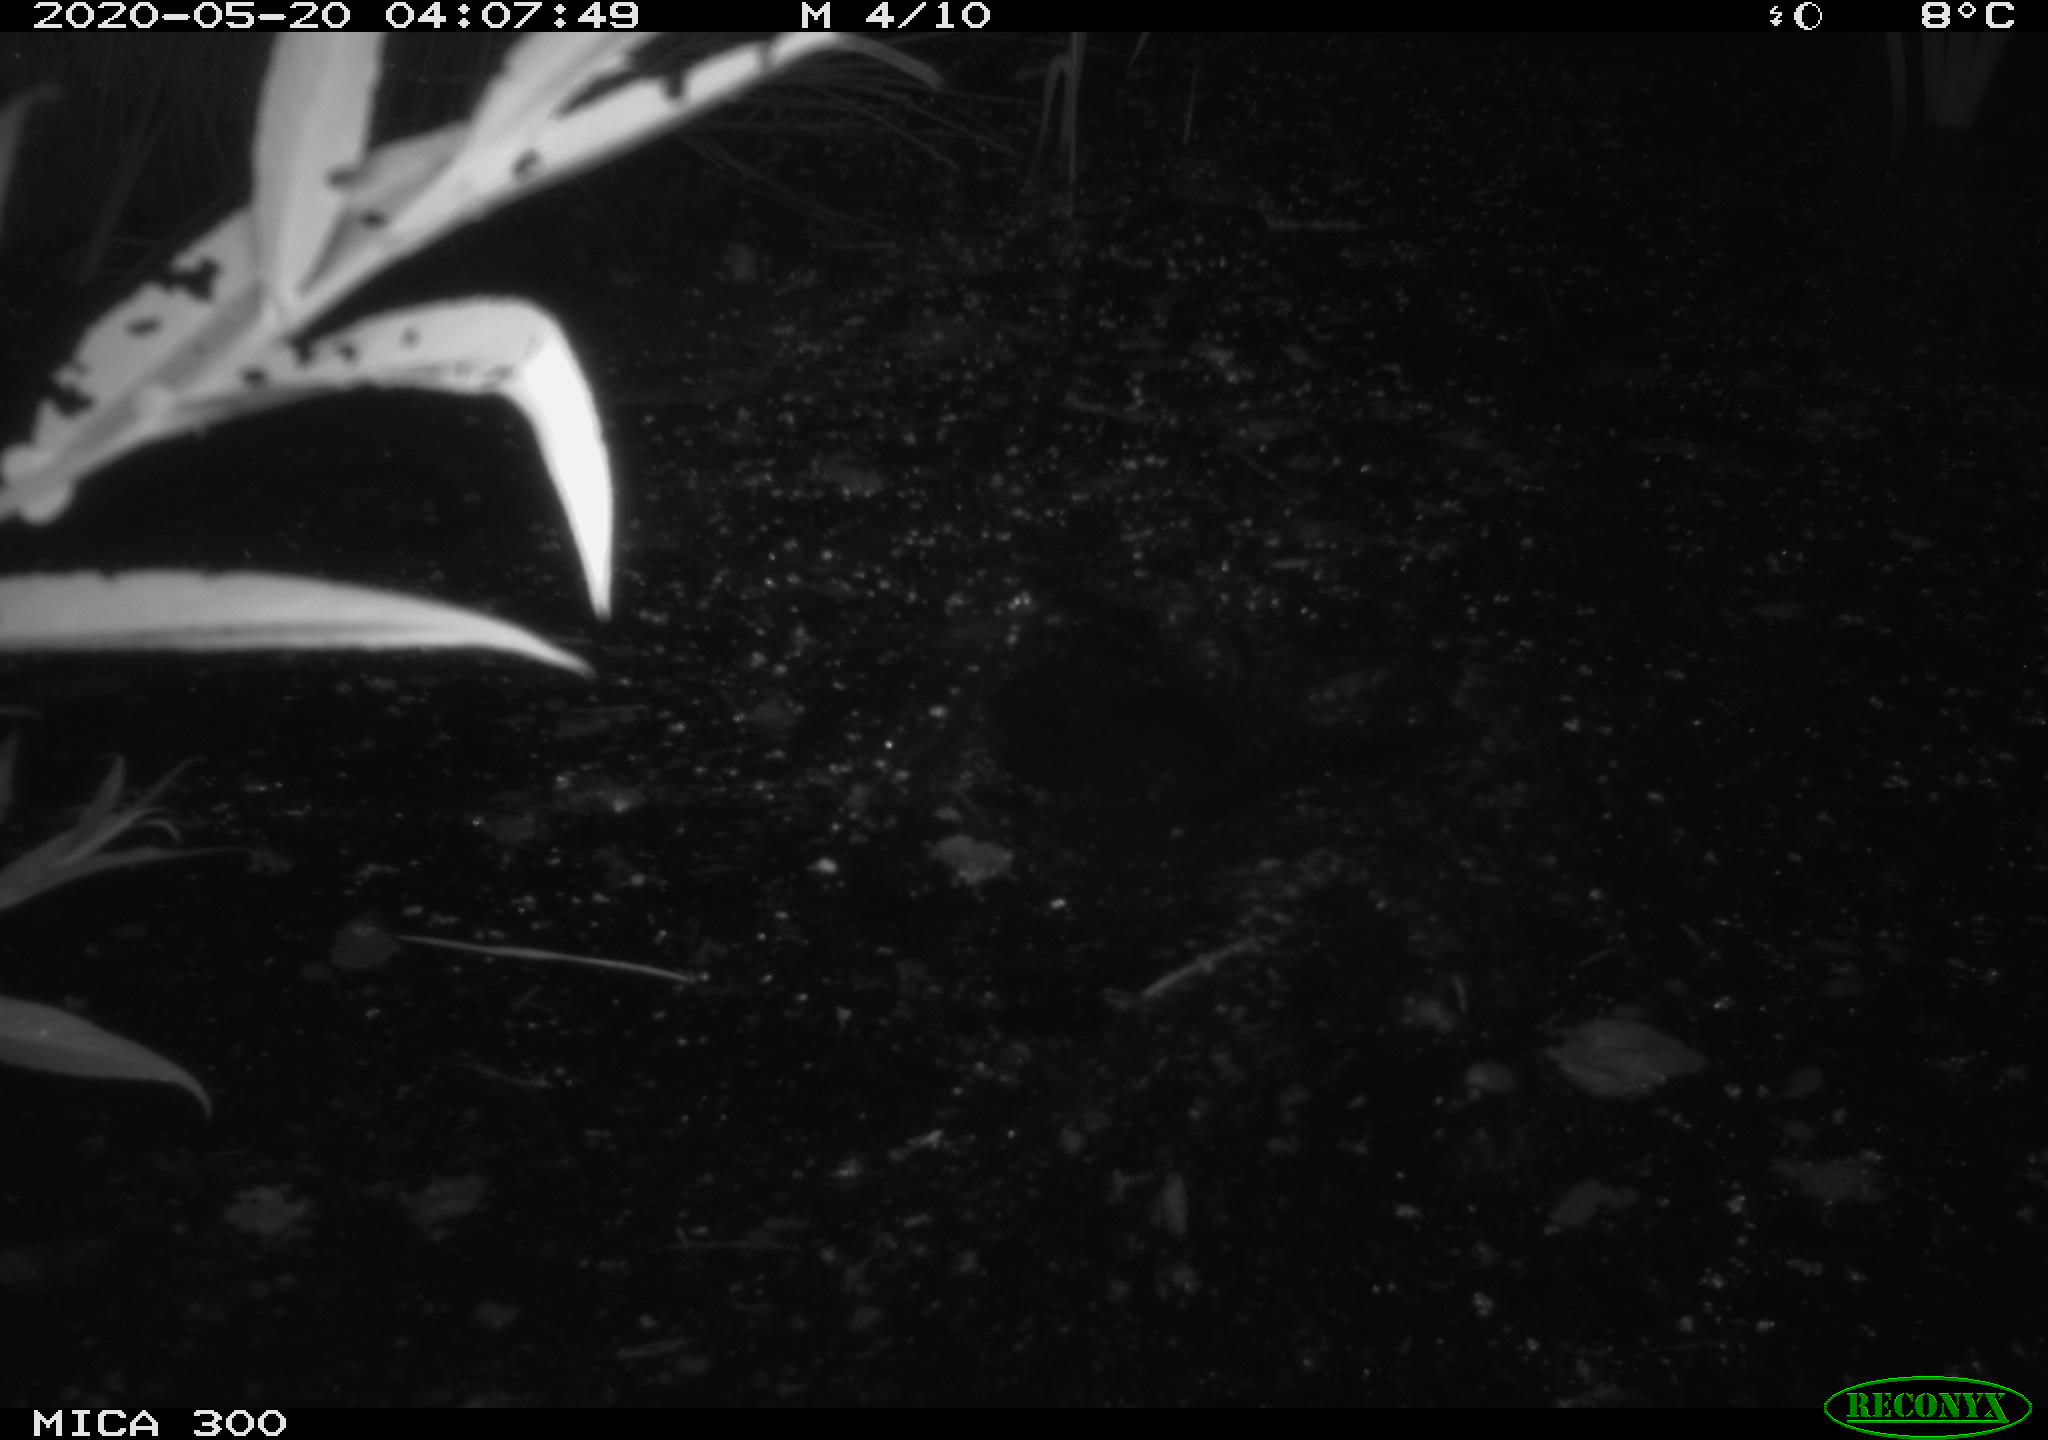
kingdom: Animalia
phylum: Chordata
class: Mammalia
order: Rodentia
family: Castoridae
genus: Castor
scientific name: Castor fiber
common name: Eurasian beaver
